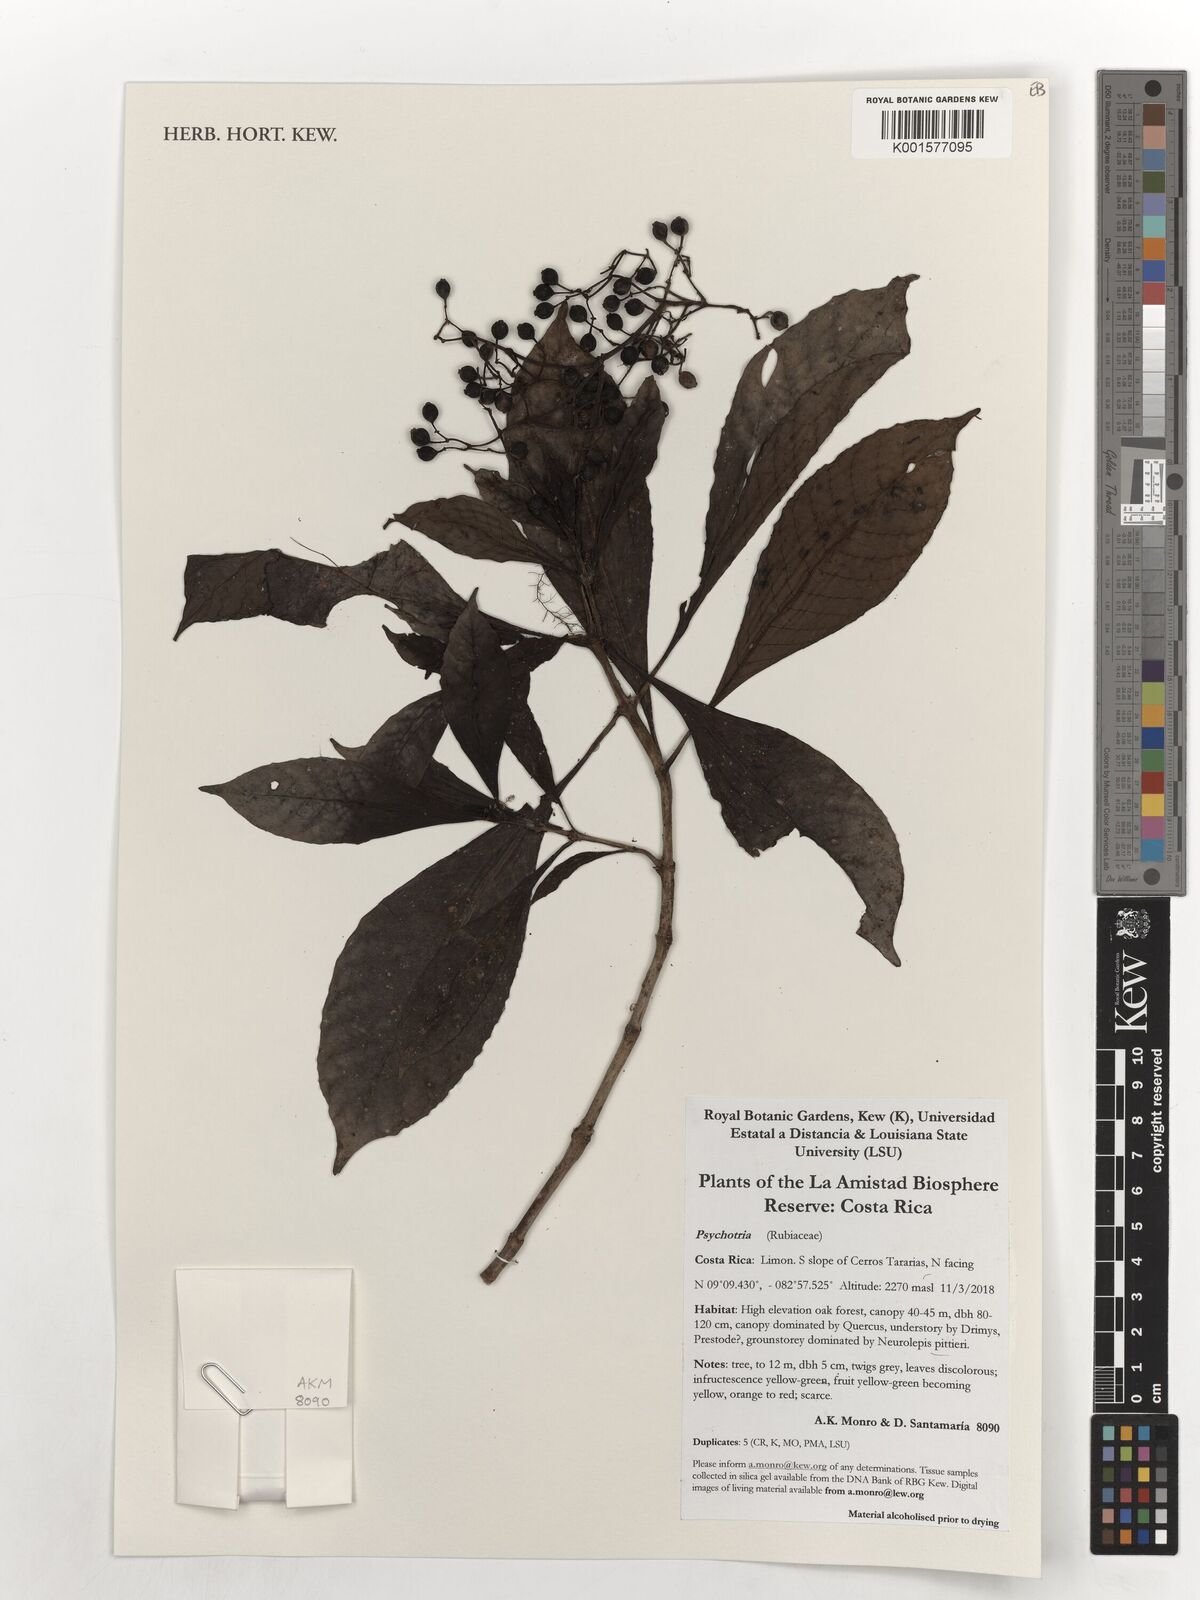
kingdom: Plantae
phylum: Tracheophyta
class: Magnoliopsida
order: Gentianales
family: Rubiaceae
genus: Psychotria
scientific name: Psychotria
